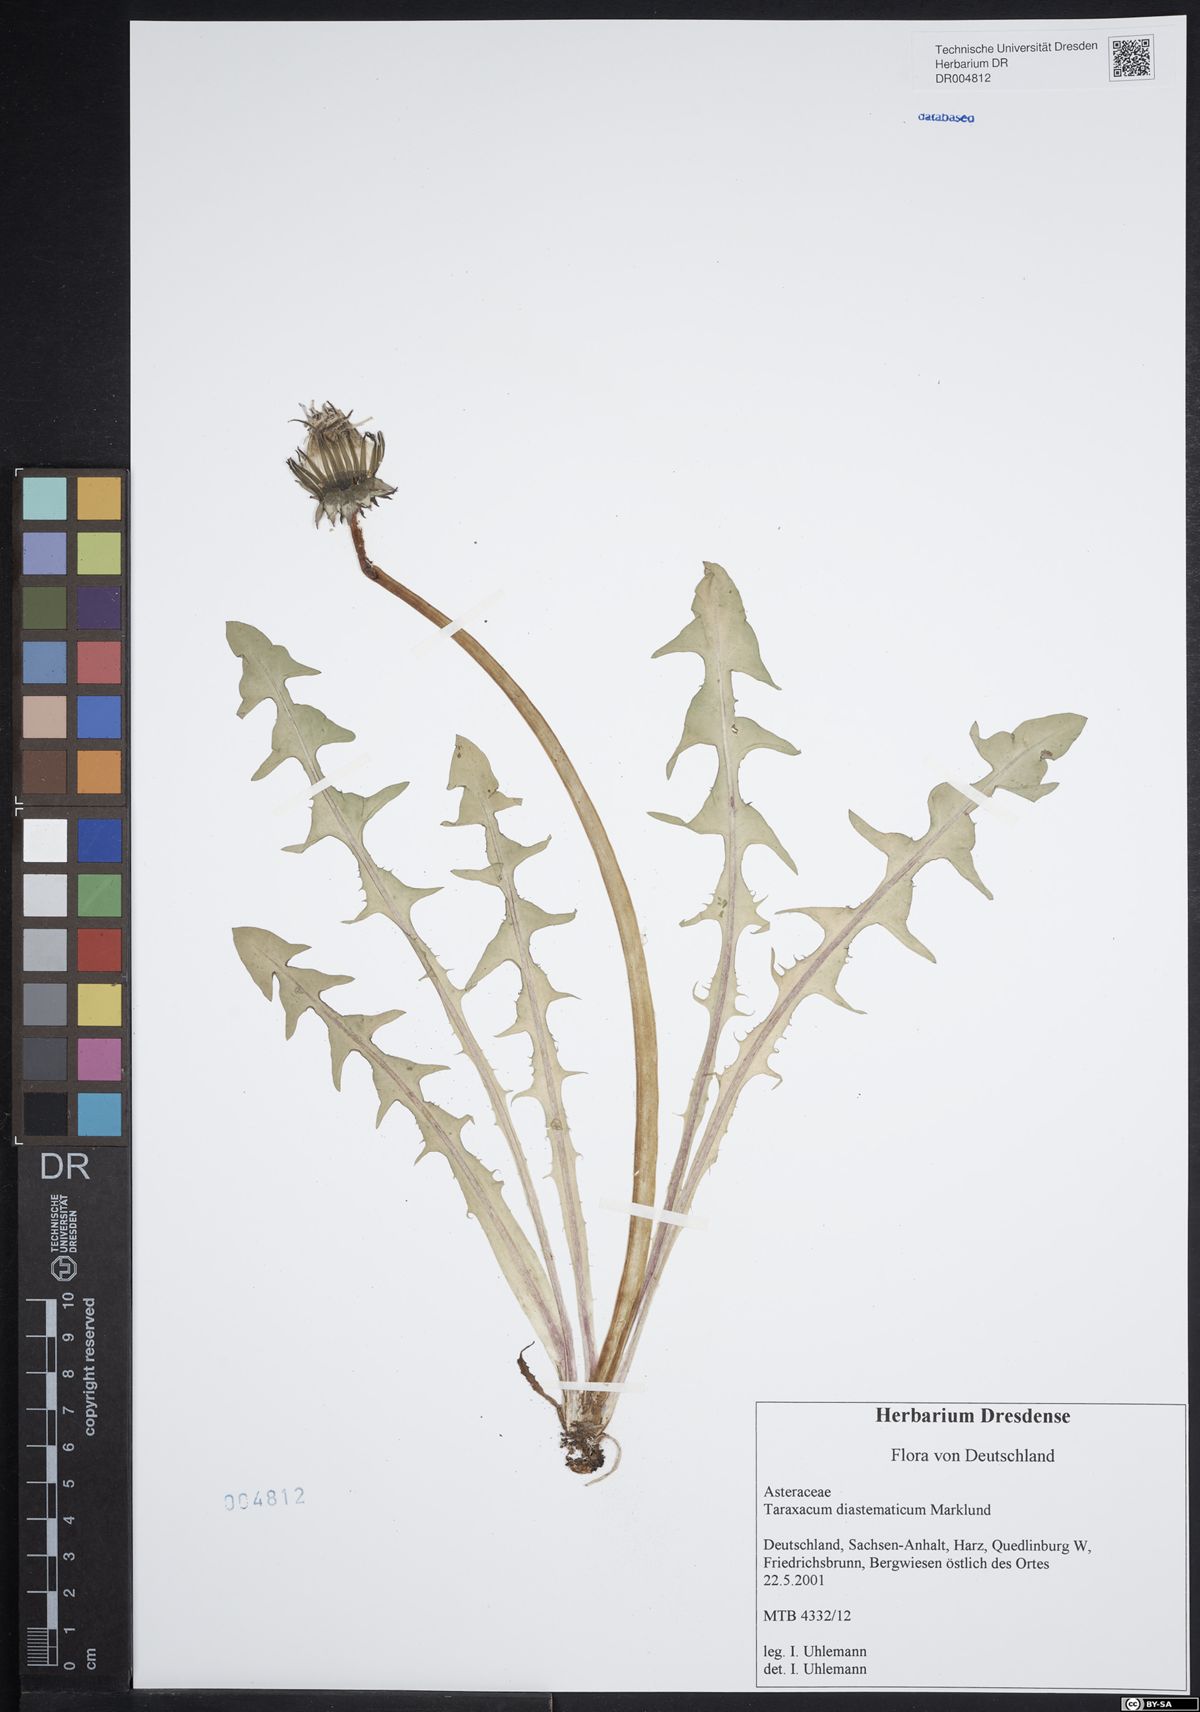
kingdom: Plantae
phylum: Tracheophyta
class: Magnoliopsida
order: Asterales
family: Asteraceae
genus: Taraxacum
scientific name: Taraxacum diastematicum
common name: Bulbous-lobed dandelion
